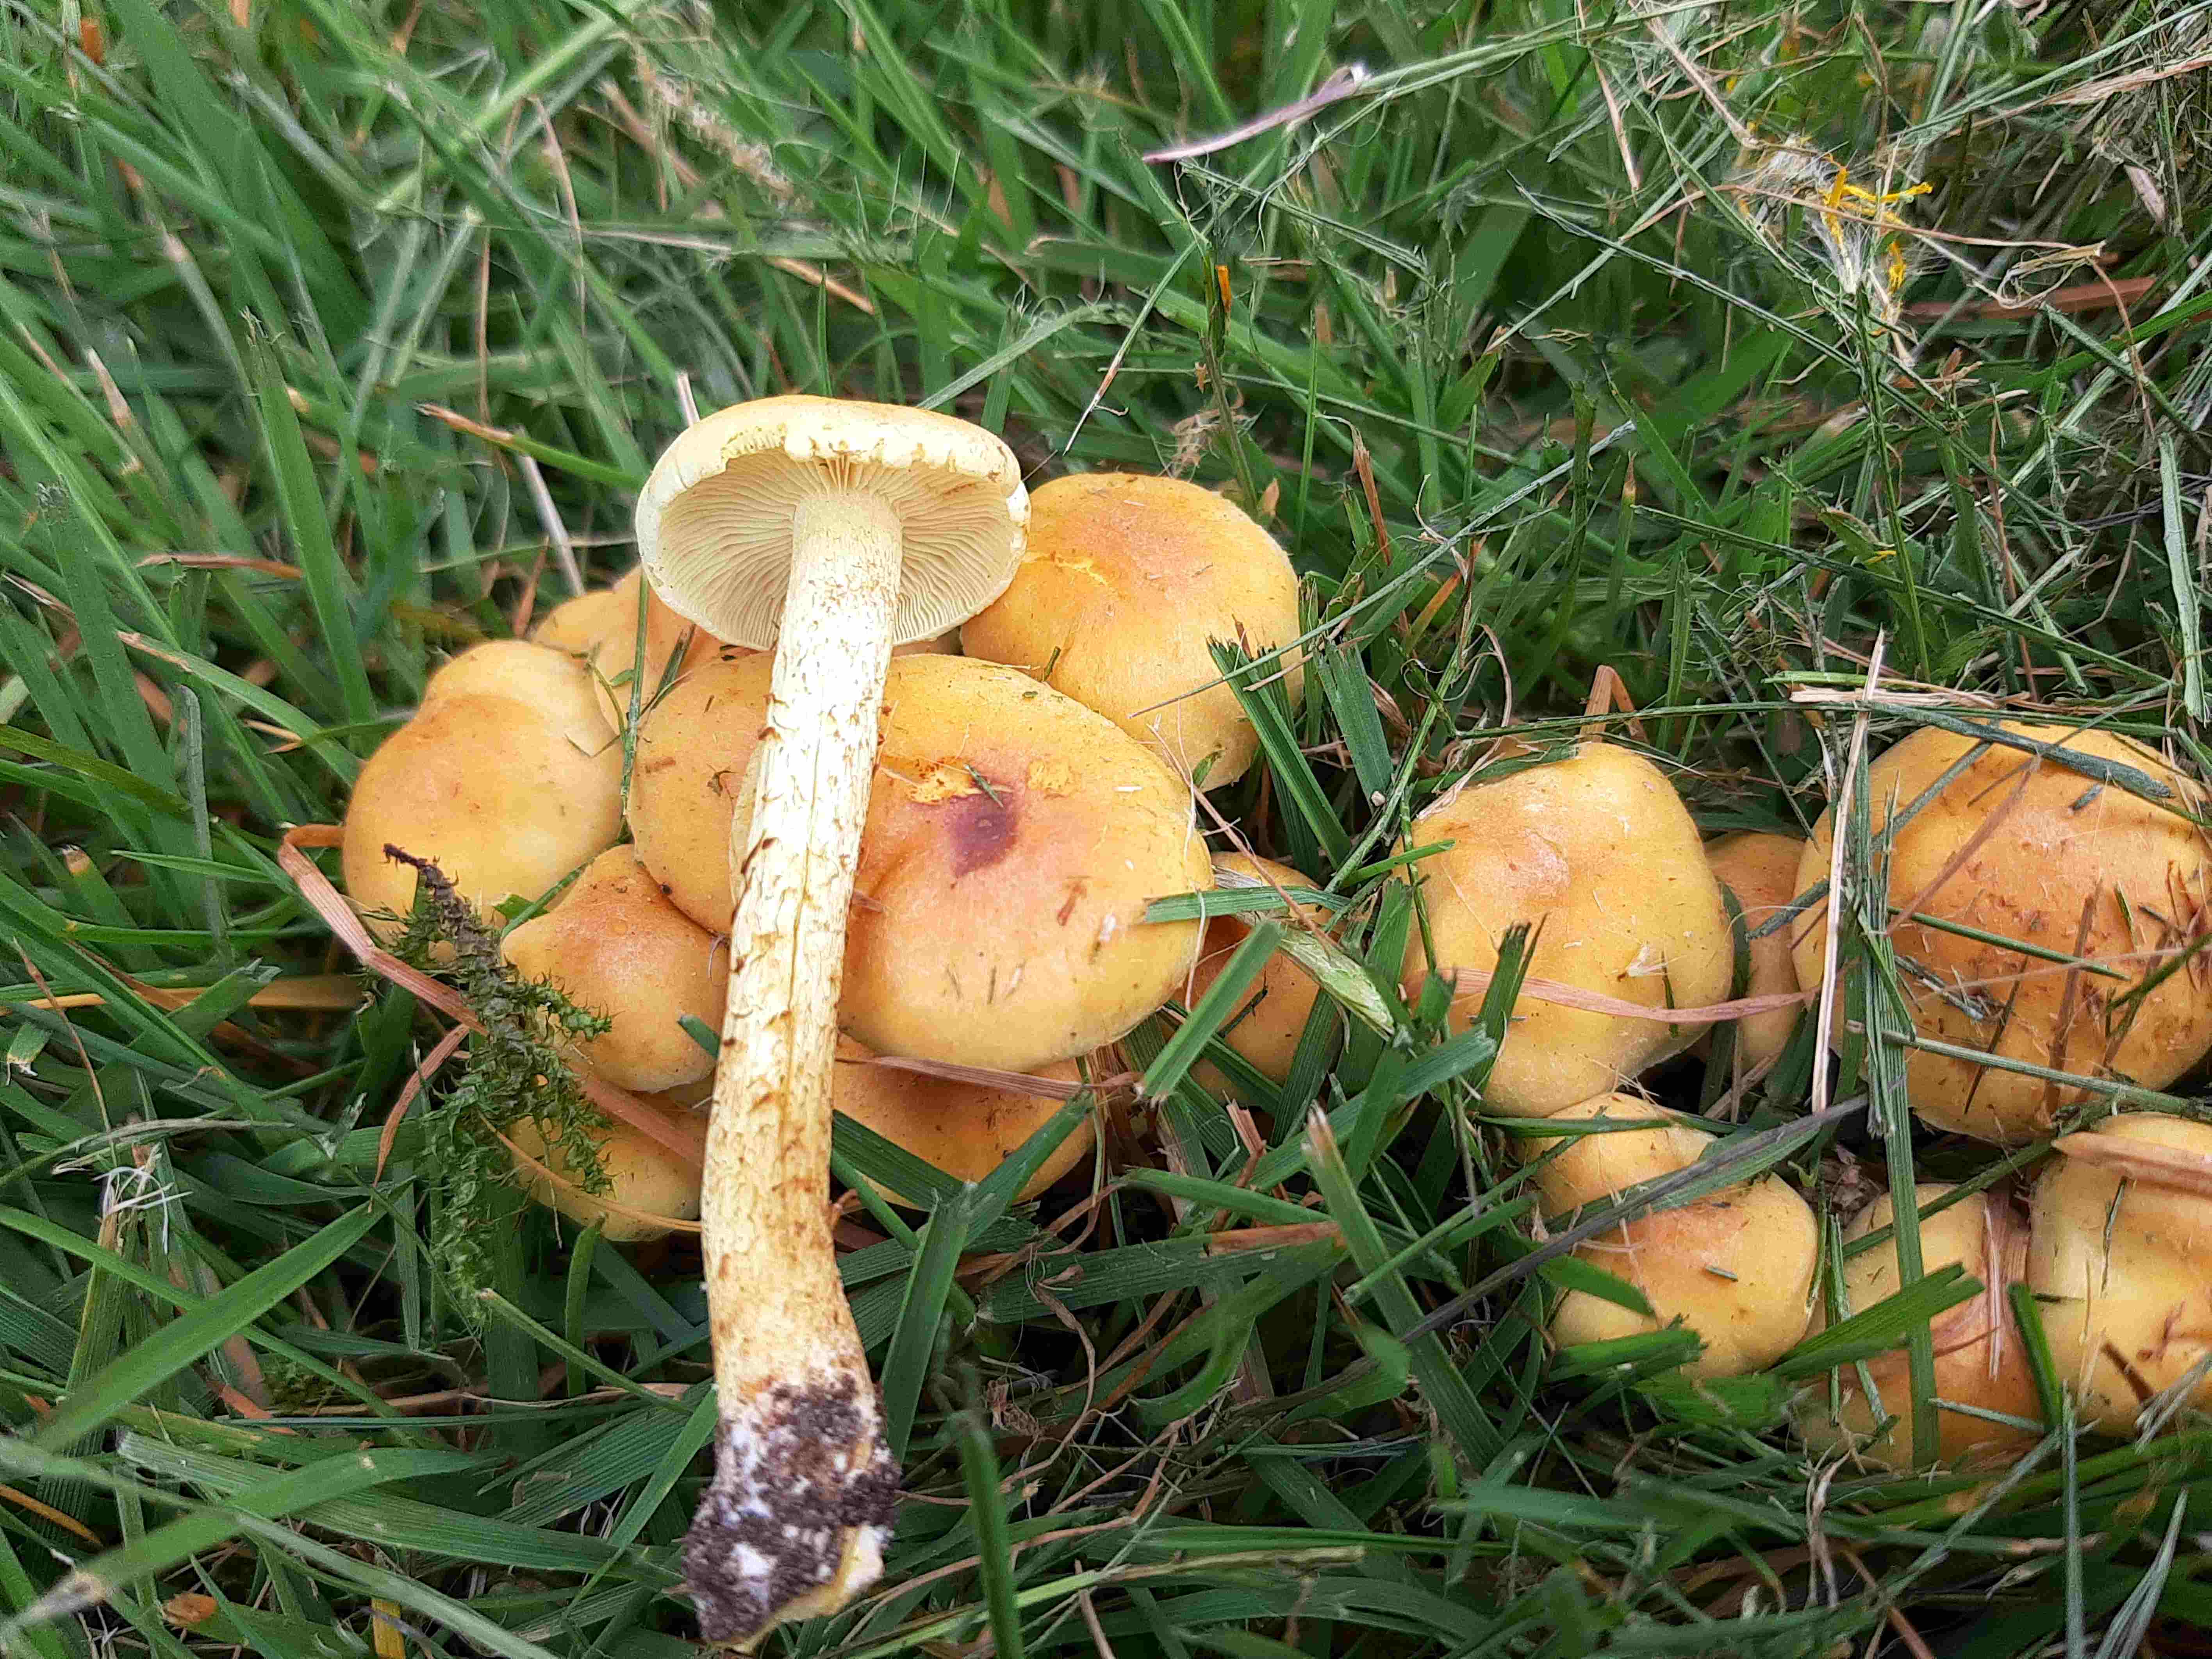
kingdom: Fungi
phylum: Basidiomycota
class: Agaricomycetes
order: Agaricales
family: Strophariaceae
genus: Hypholoma
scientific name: Hypholoma fasciculare
